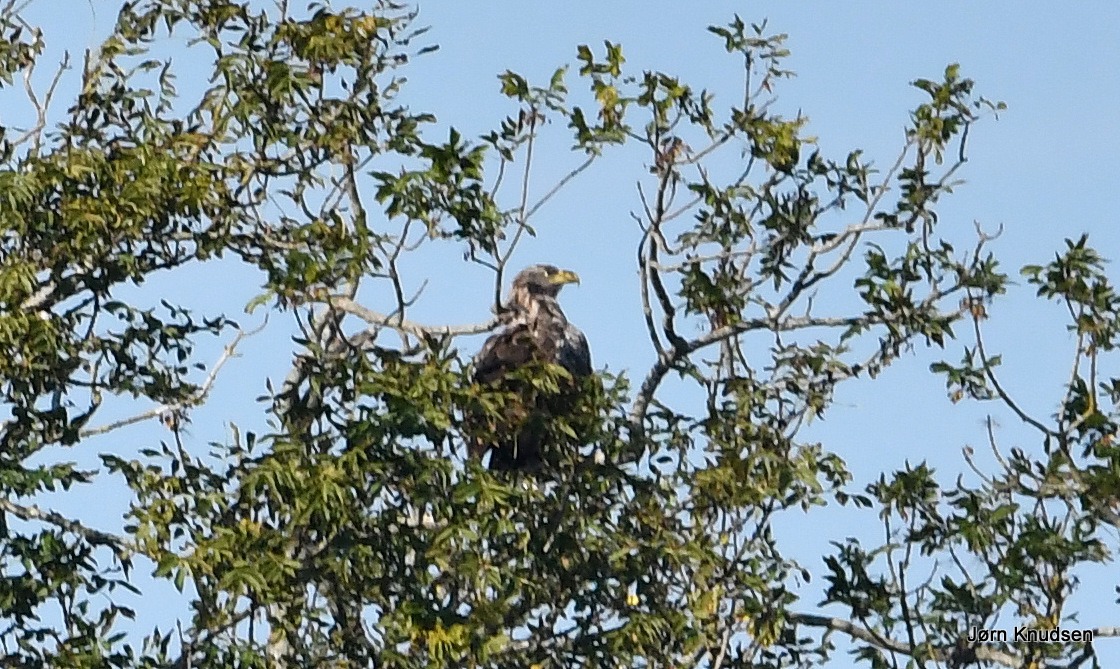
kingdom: Animalia
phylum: Chordata
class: Aves
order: Accipitriformes
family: Accipitridae
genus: Haliaeetus
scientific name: Haliaeetus albicilla
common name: Havørn
